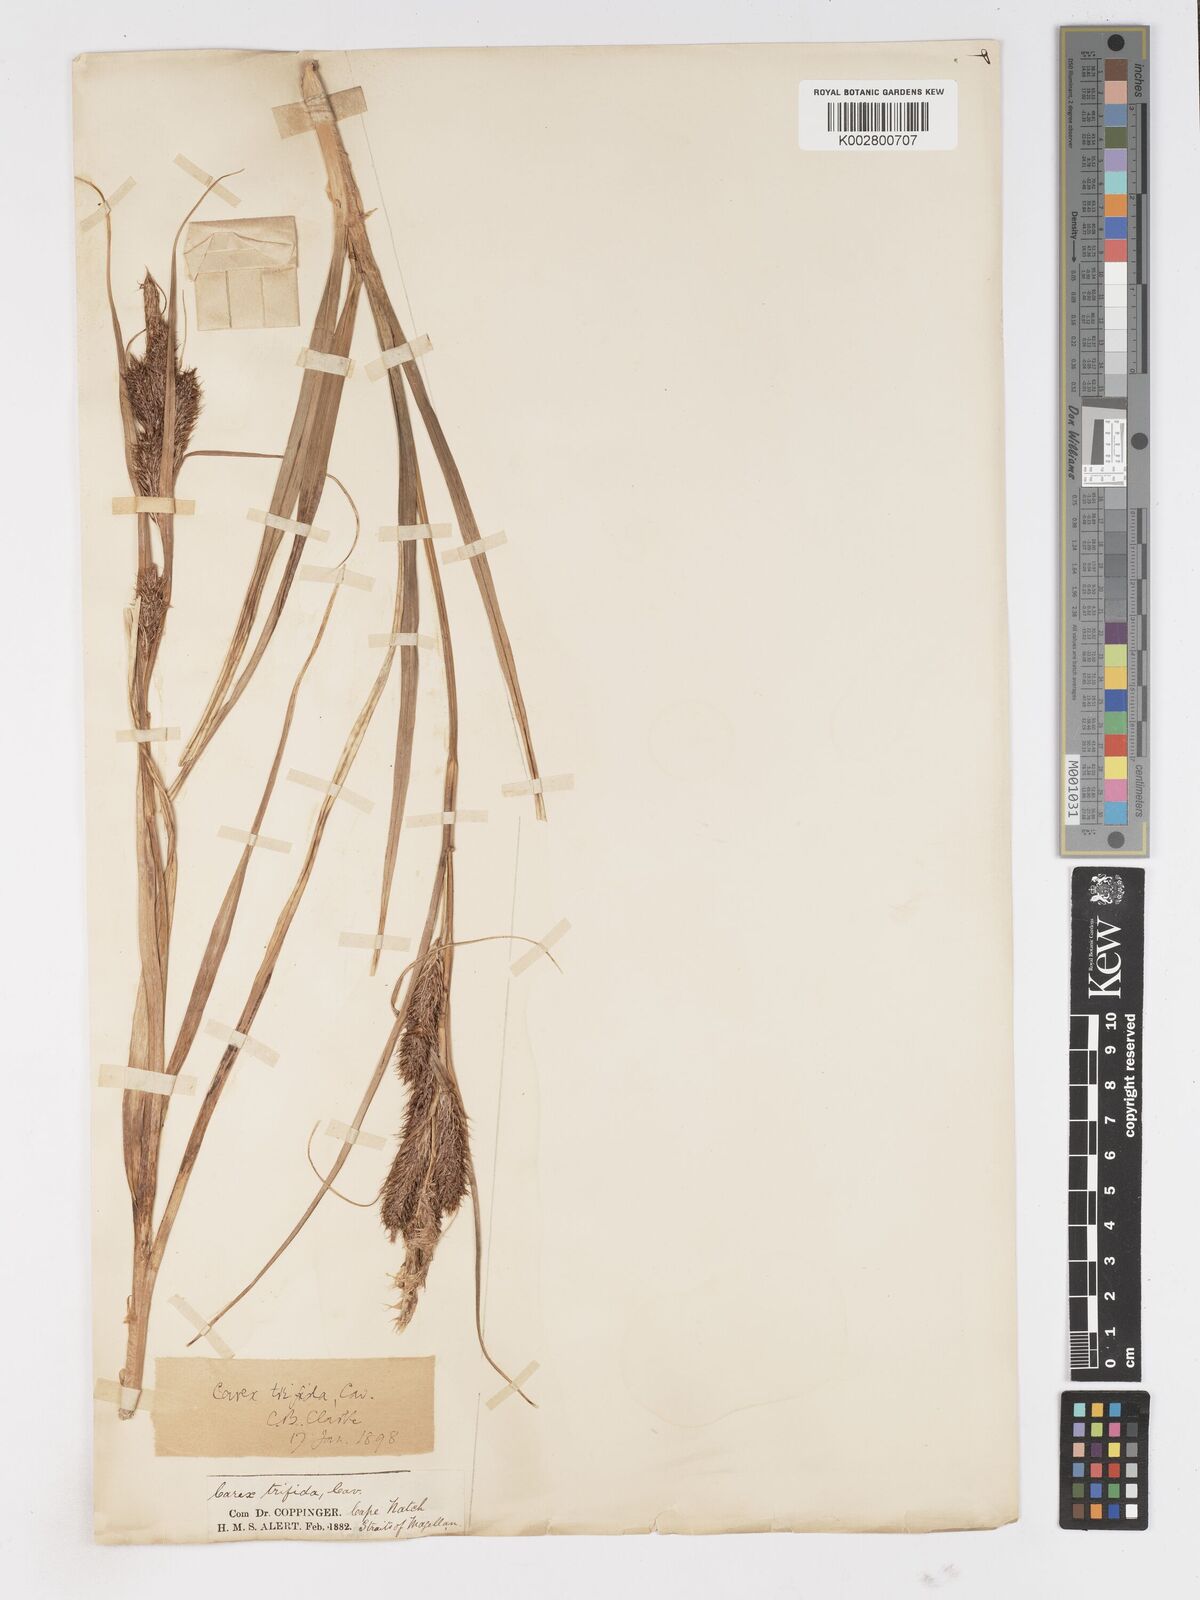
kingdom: Plantae
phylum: Tracheophyta
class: Liliopsida
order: Poales
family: Cyperaceae
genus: Carex
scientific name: Carex trifida
